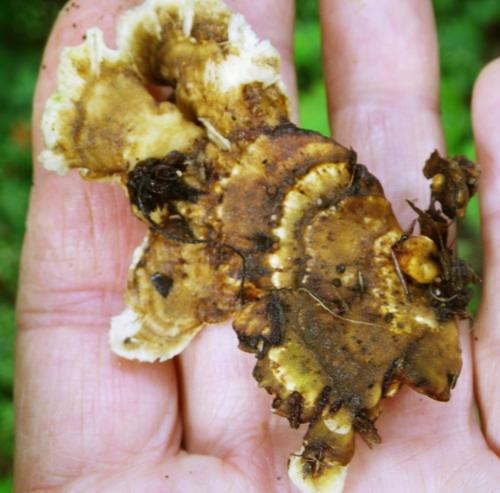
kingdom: Fungi
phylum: Basidiomycota
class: Agaricomycetes
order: Polyporales
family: Steccherinaceae
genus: Loweomyces
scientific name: Loweomyces wynneae
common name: krybende blødporesvamp
